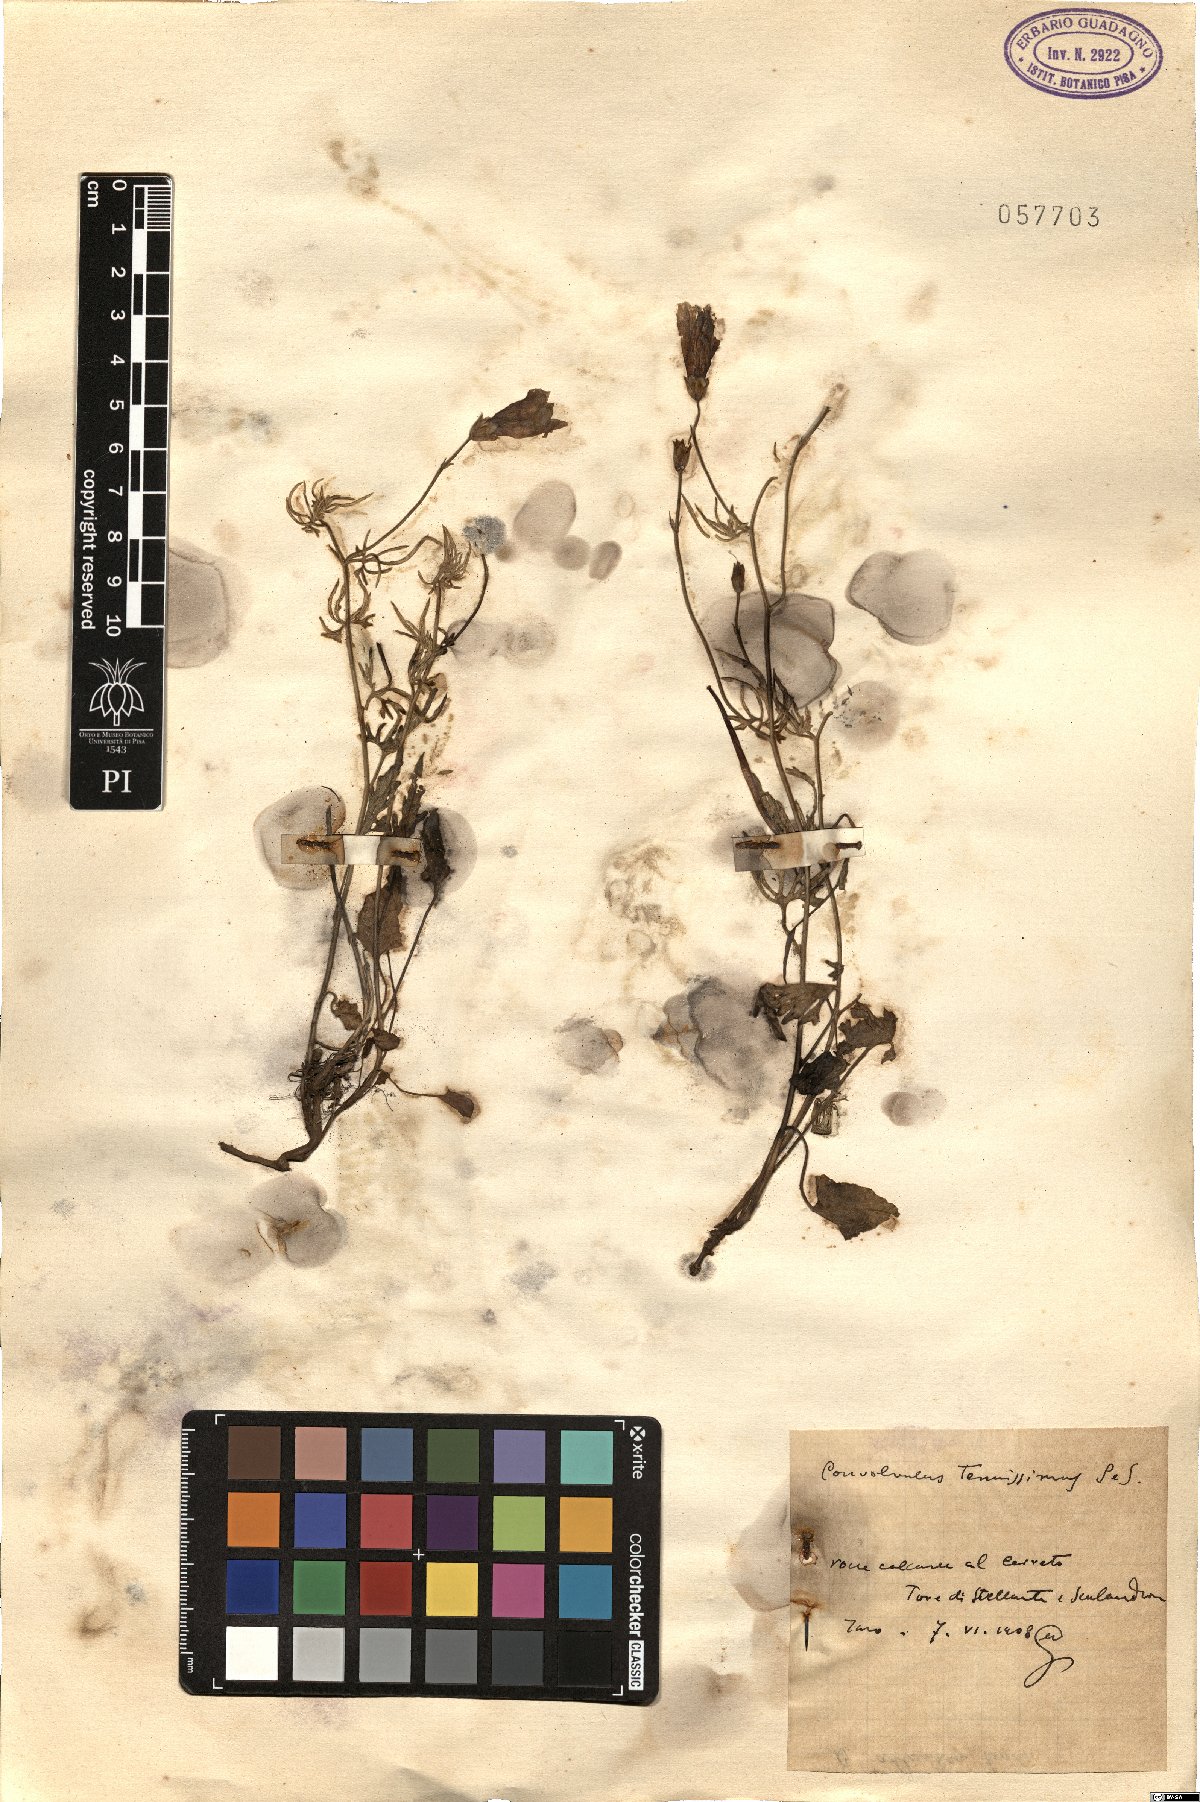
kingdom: Plantae
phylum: Tracheophyta
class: Magnoliopsida
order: Solanales
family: Convolvulaceae
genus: Convolvulus
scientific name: Convolvulus elegantissimus
